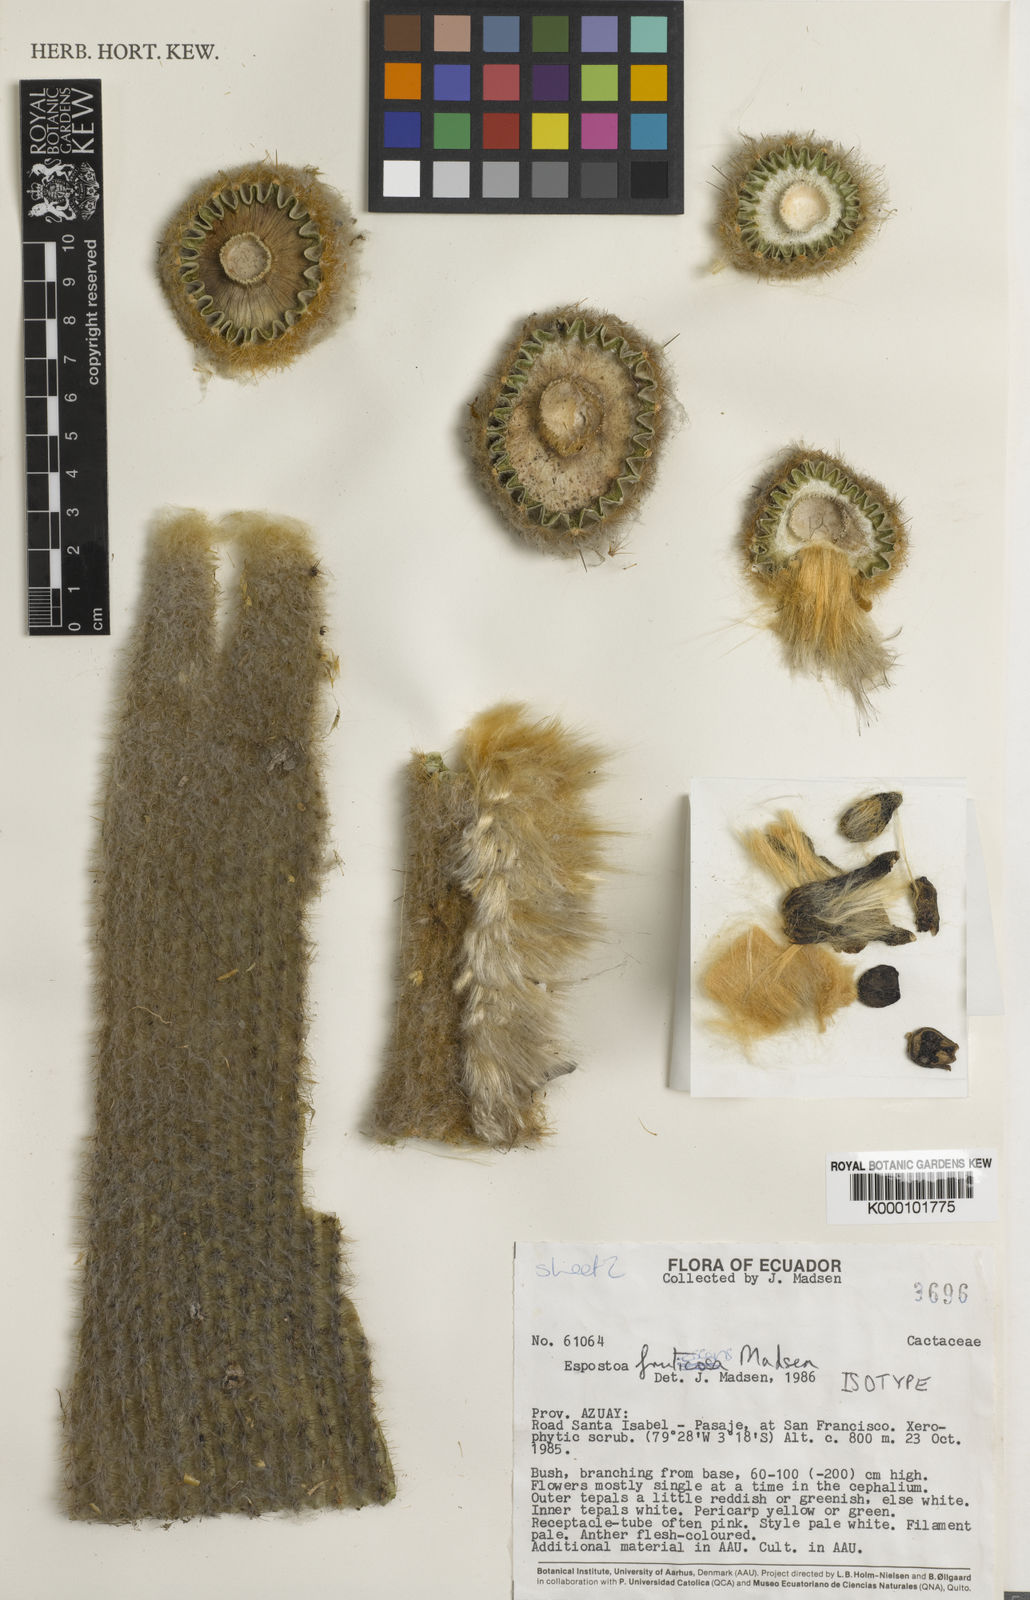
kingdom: Plantae
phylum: Tracheophyta
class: Magnoliopsida
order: Caryophyllales
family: Cactaceae
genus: Espostoa
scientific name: Espostoa frutescens
